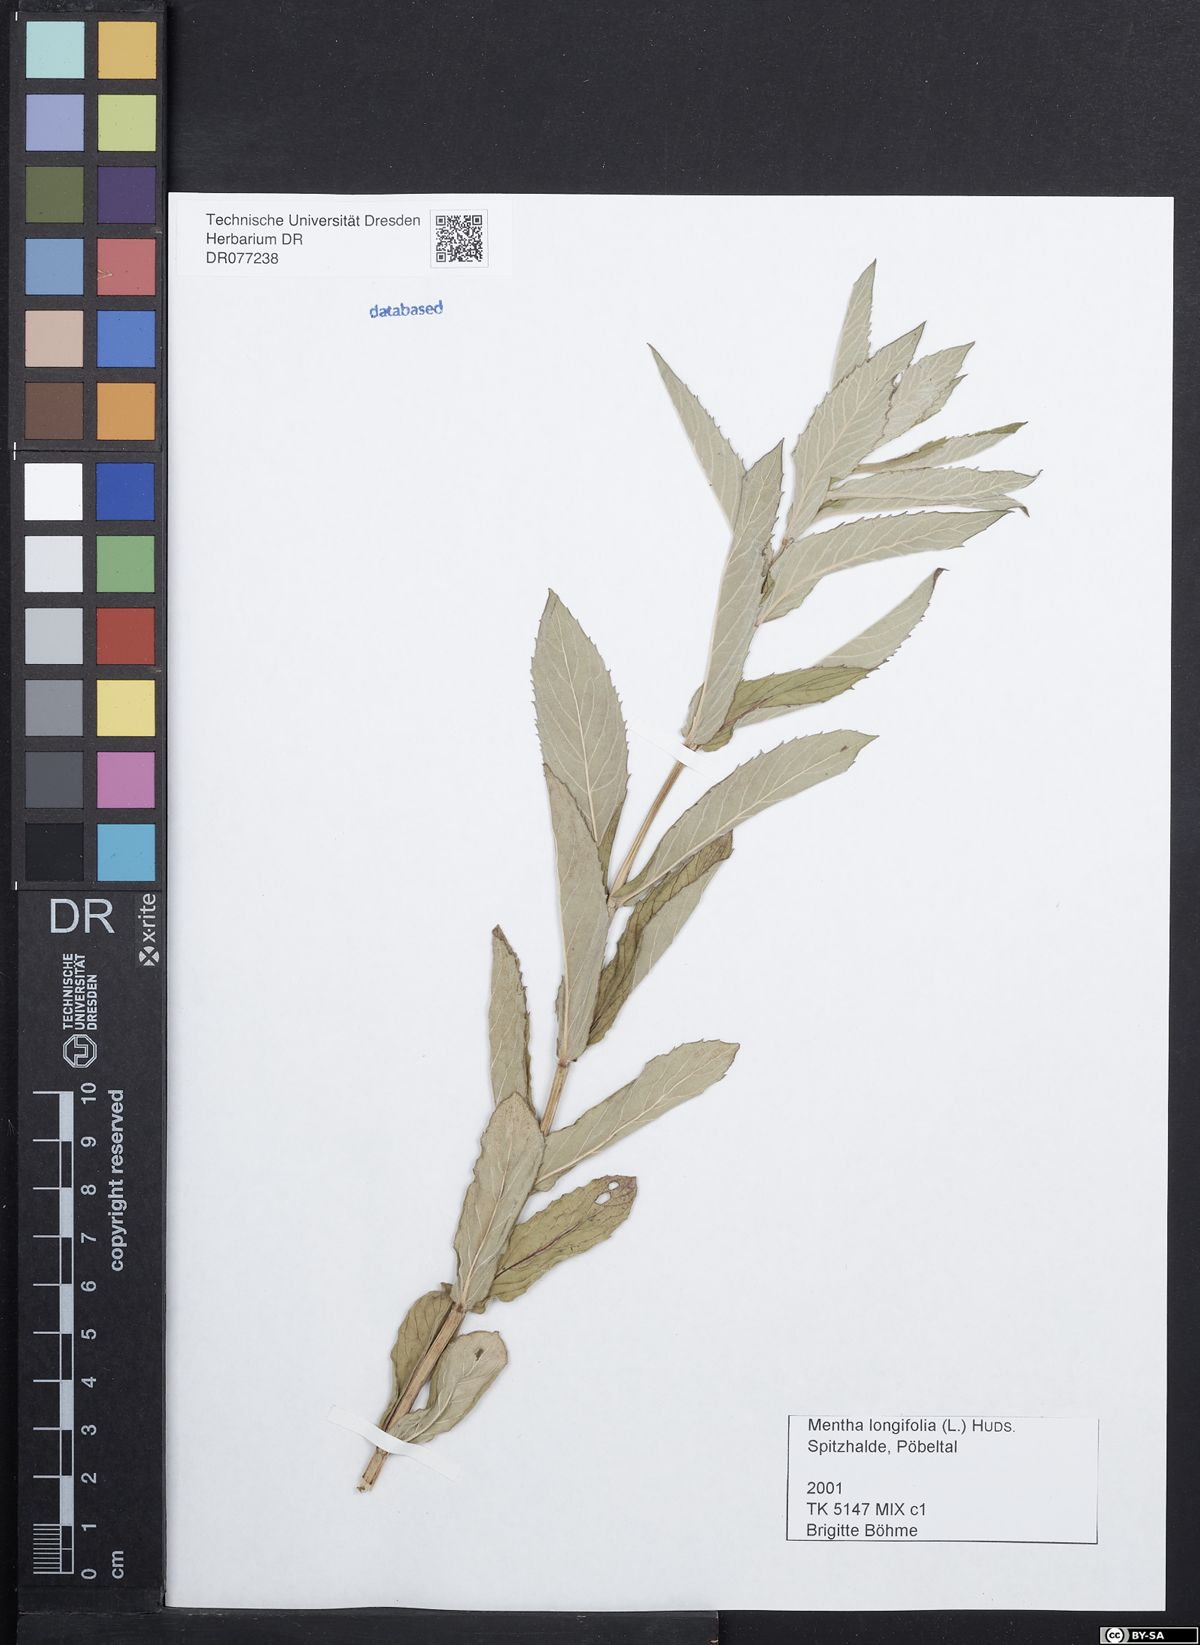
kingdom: Plantae
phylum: Tracheophyta
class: Magnoliopsida
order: Lamiales
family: Lamiaceae
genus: Mentha
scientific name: Mentha longifolia
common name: Horse mint
